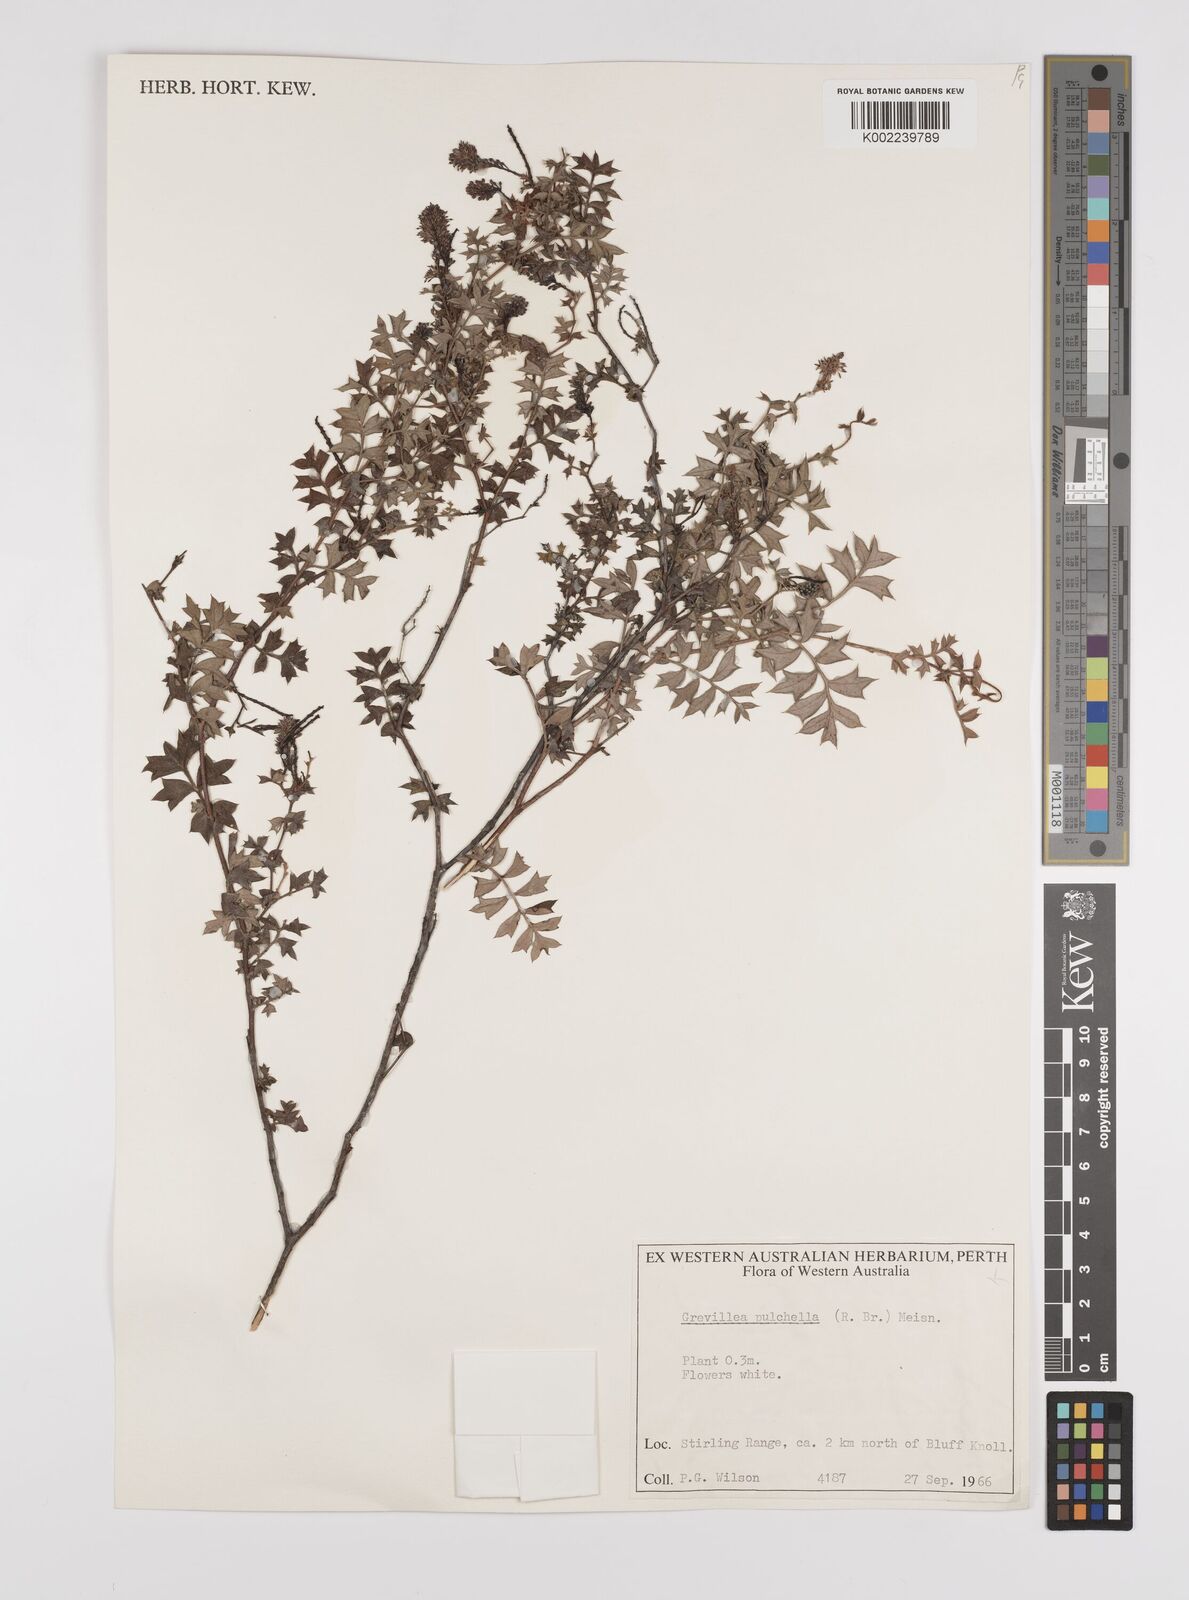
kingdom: Plantae
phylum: Tracheophyta
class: Magnoliopsida
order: Proteales
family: Proteaceae
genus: Grevillea
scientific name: Grevillea pulchella
